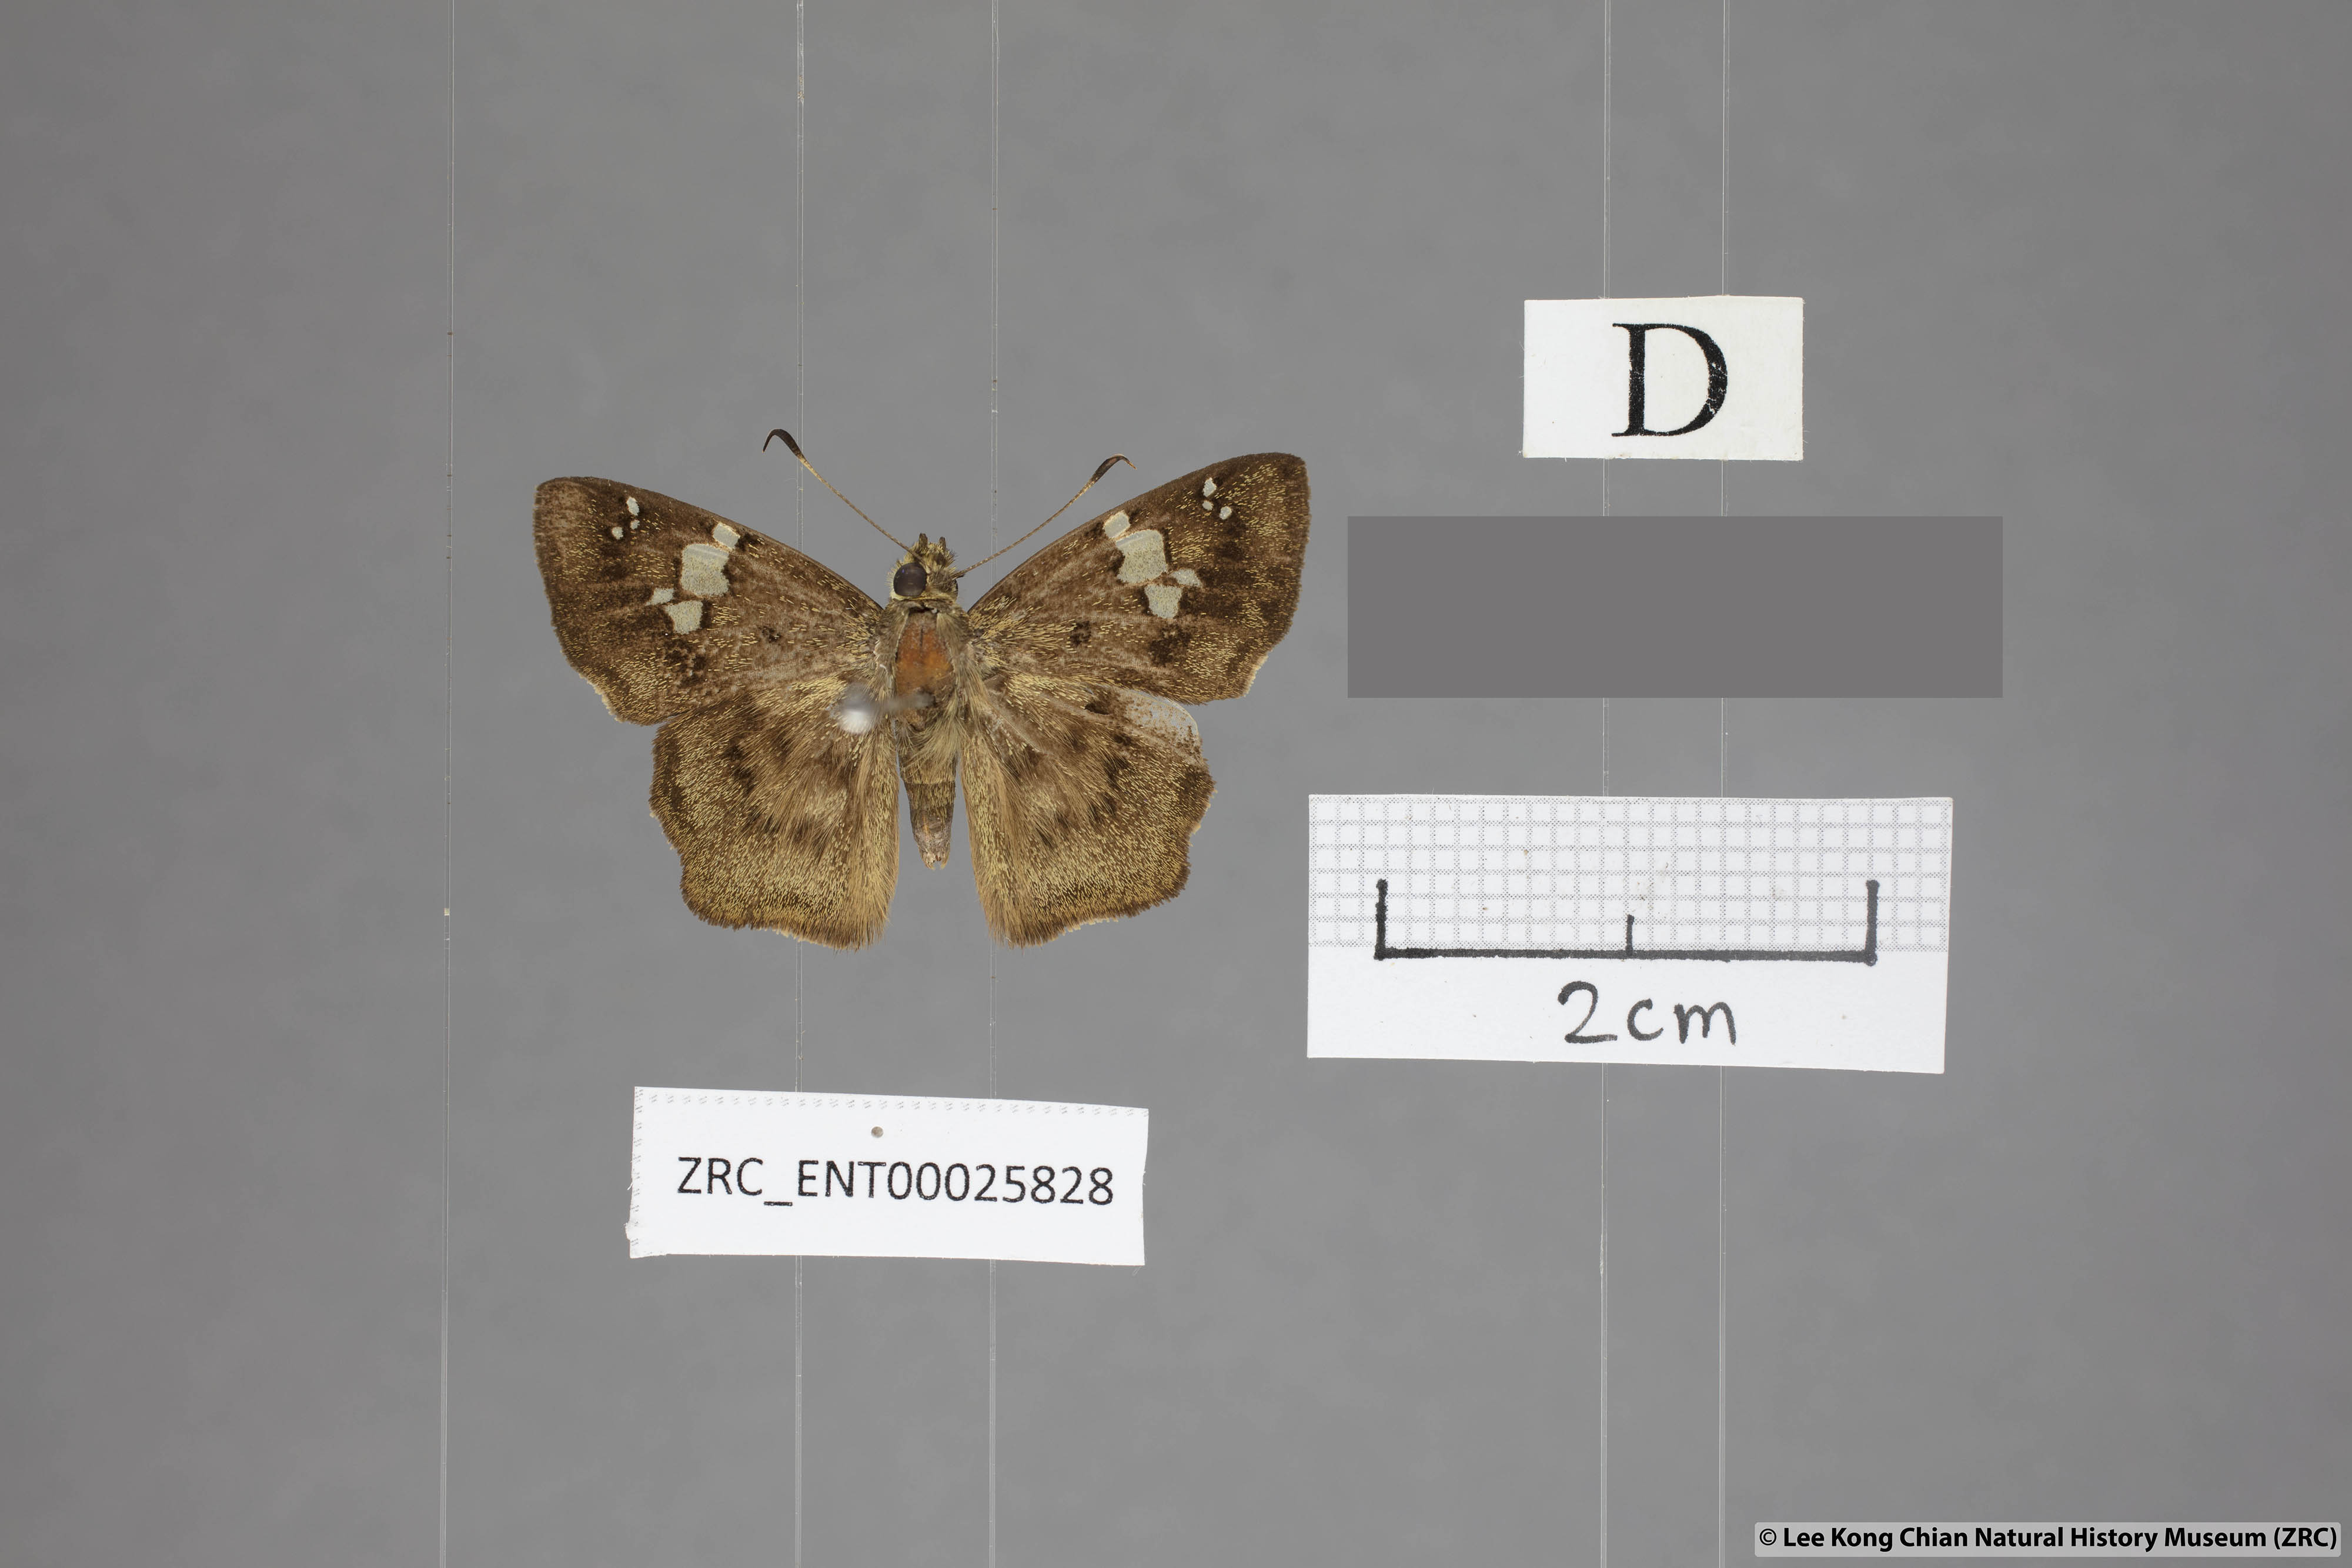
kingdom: Animalia
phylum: Arthropoda
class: Insecta
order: Lepidoptera
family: Hesperiidae
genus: Coladenia
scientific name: Coladenia
